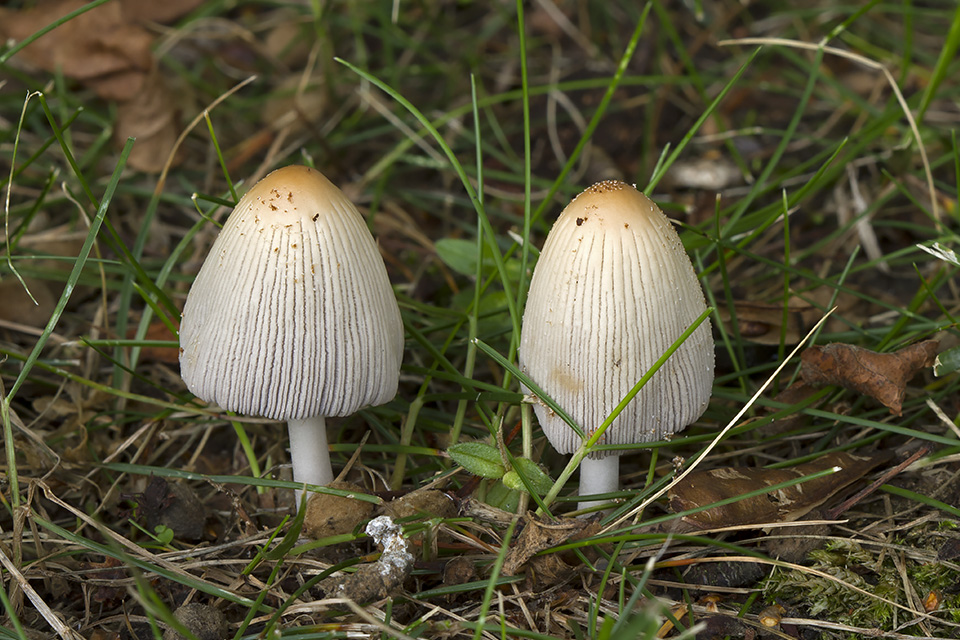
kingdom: Fungi
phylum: Basidiomycota
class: Agaricomycetes
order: Agaricales
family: Psathyrellaceae
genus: Coprinellus
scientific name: Coprinellus xanthothrix
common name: gultrådet blækhat
